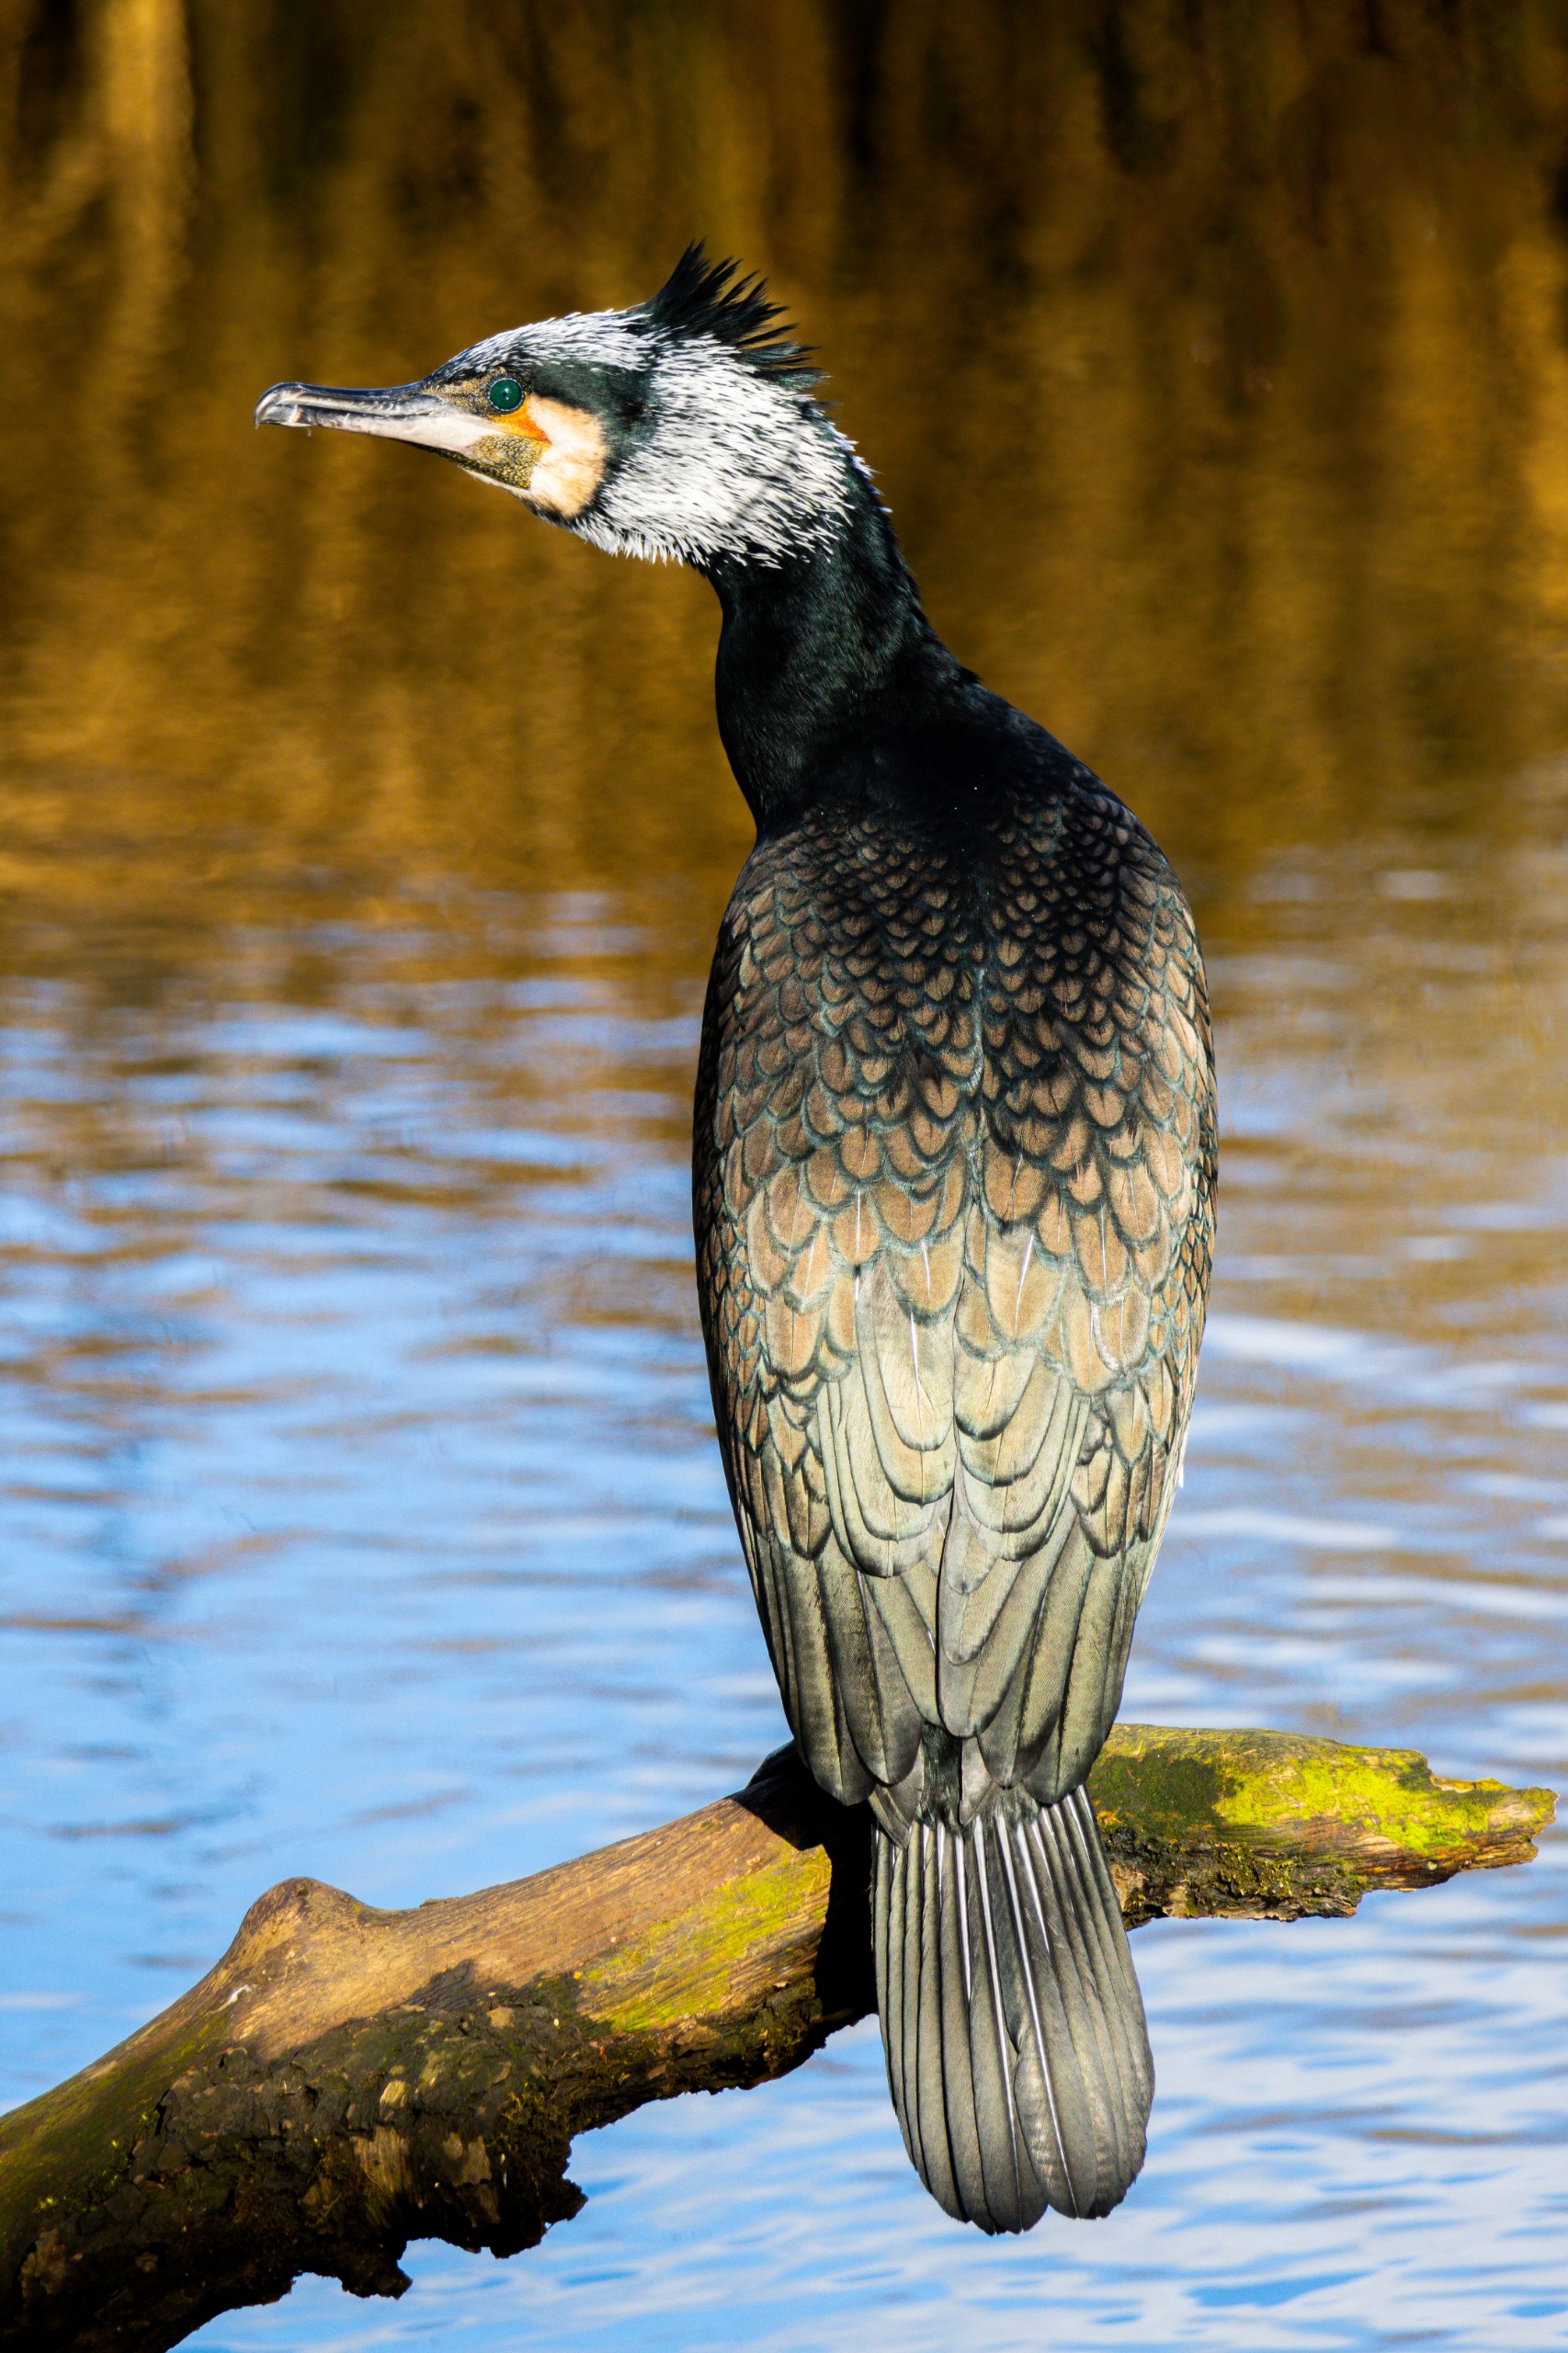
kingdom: Animalia
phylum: Chordata
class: Aves
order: Suliformes
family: Phalacrocoracidae
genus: Phalacrocorax
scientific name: Phalacrocorax carbo
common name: Skarv
